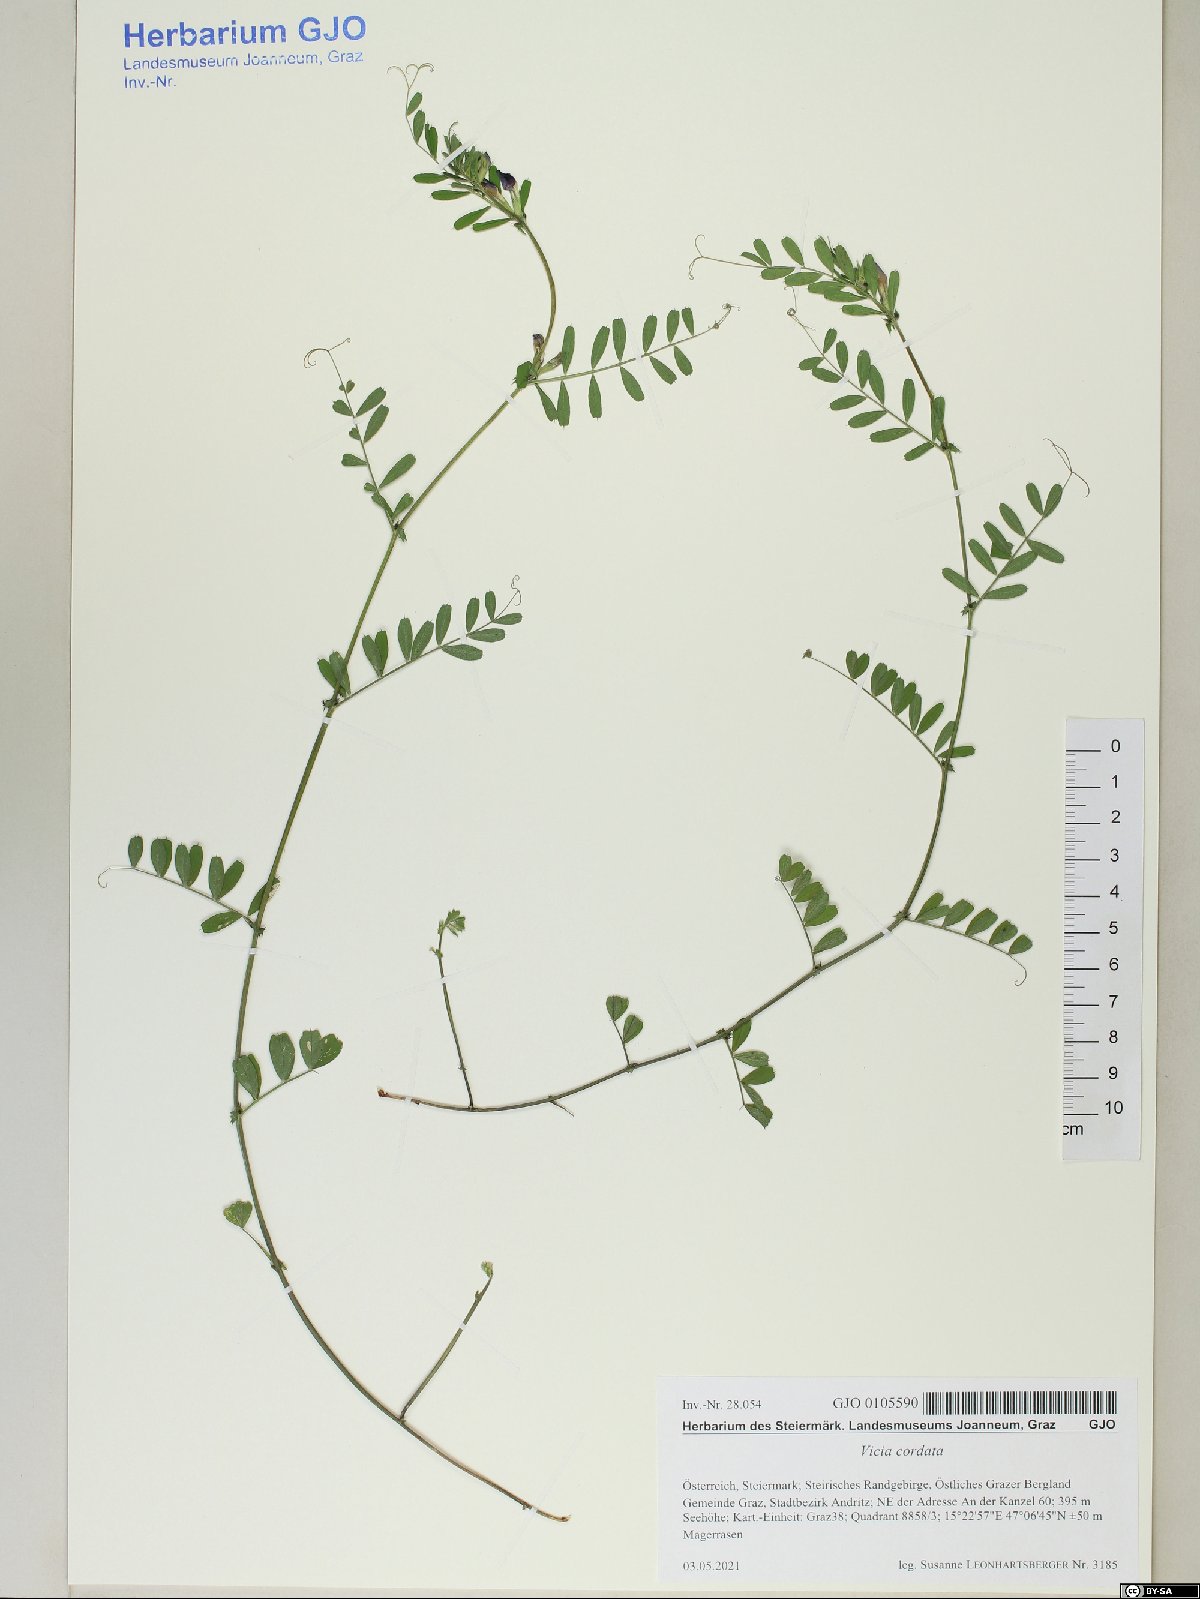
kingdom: Plantae
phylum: Tracheophyta
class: Magnoliopsida
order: Fabales
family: Fabaceae
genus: Vicia
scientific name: Vicia sativa
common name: Garden vetch
